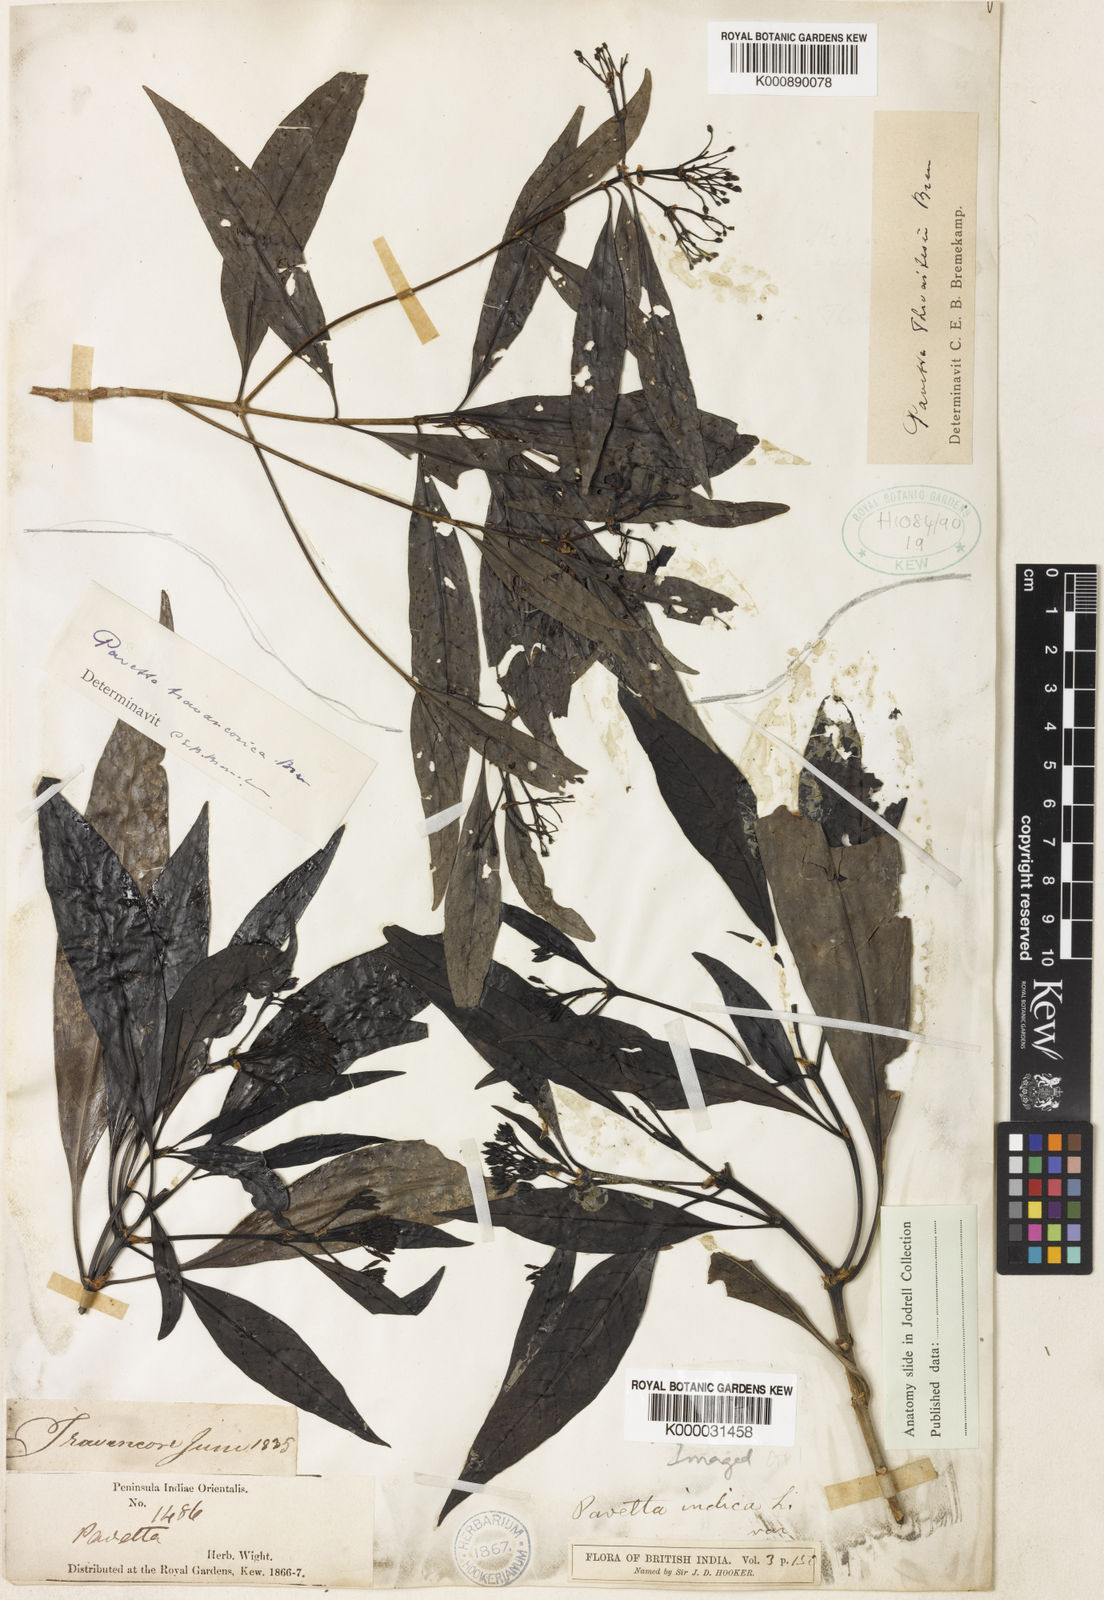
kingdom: Plantae
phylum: Tracheophyta
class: Magnoliopsida
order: Gentianales
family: Rubiaceae
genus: Pavetta
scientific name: Pavetta travancorica
